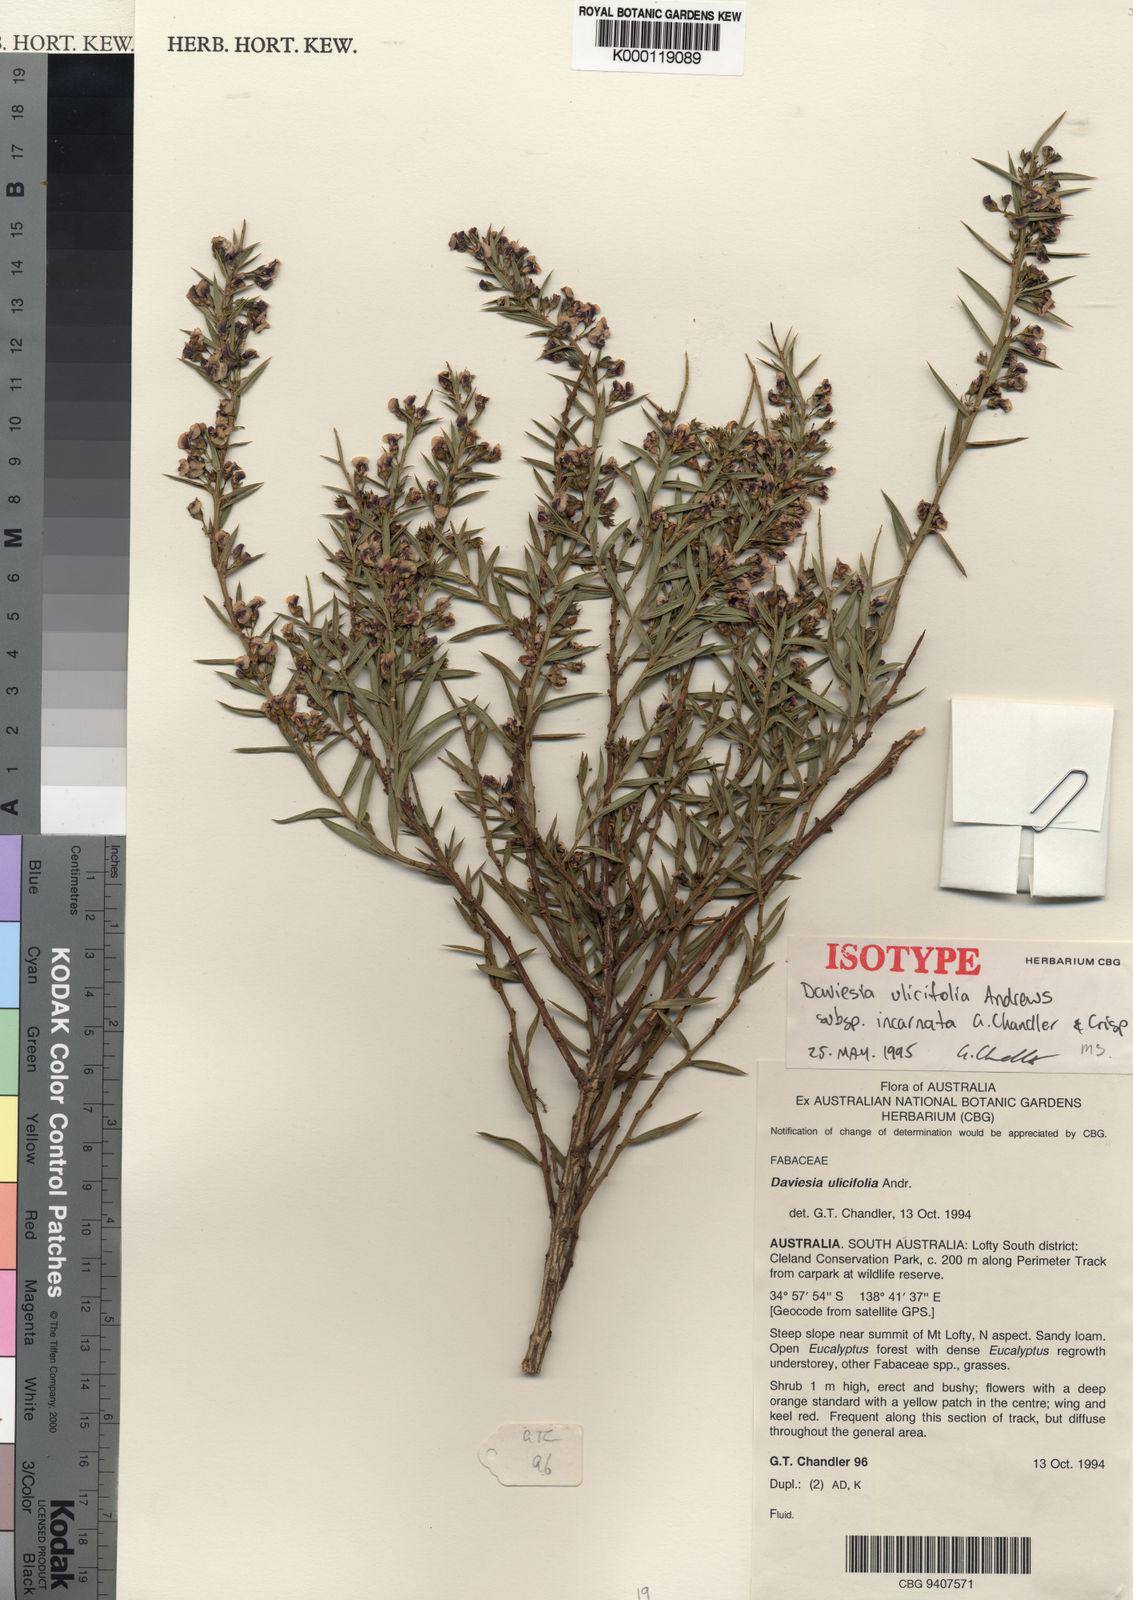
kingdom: Plantae
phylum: Tracheophyta
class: Magnoliopsida
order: Fabales
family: Fabaceae
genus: Daviesia
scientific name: Daviesia ulicifolia
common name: Gorse bitter-pea
